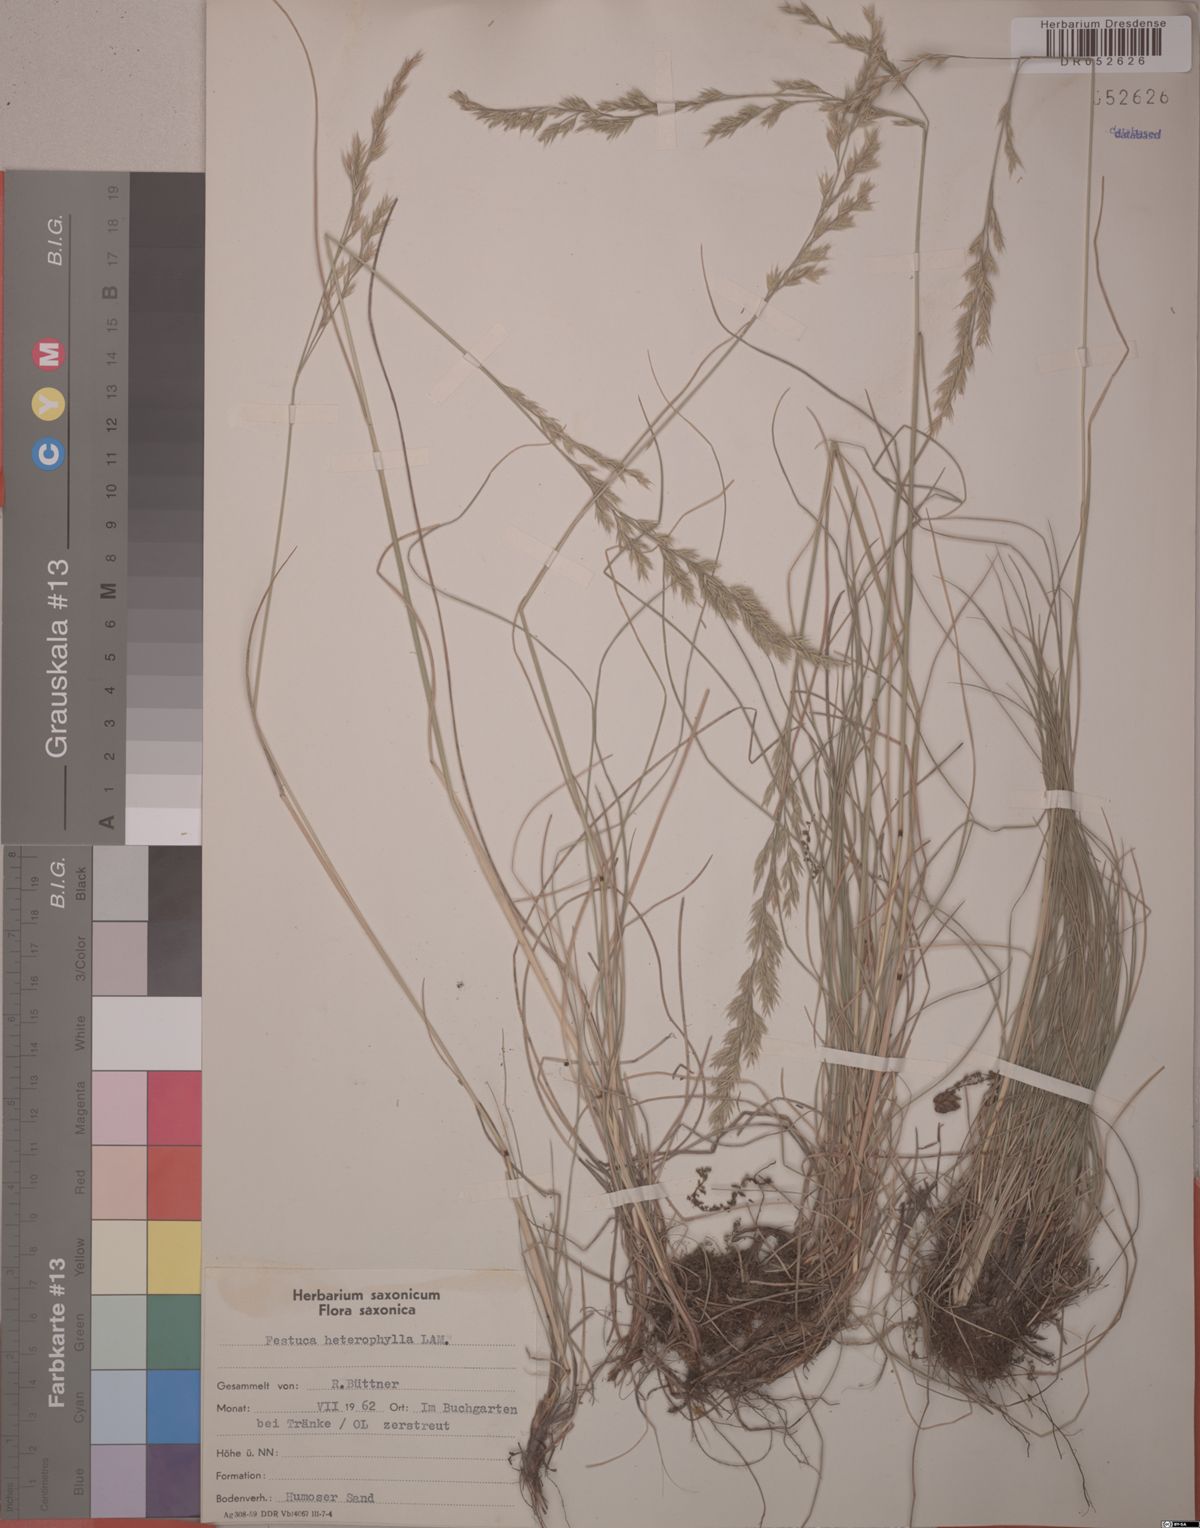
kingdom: Plantae
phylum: Tracheophyta
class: Liliopsida
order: Poales
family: Poaceae
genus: Festuca
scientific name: Festuca heterophylla
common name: Various-leaved fescue
